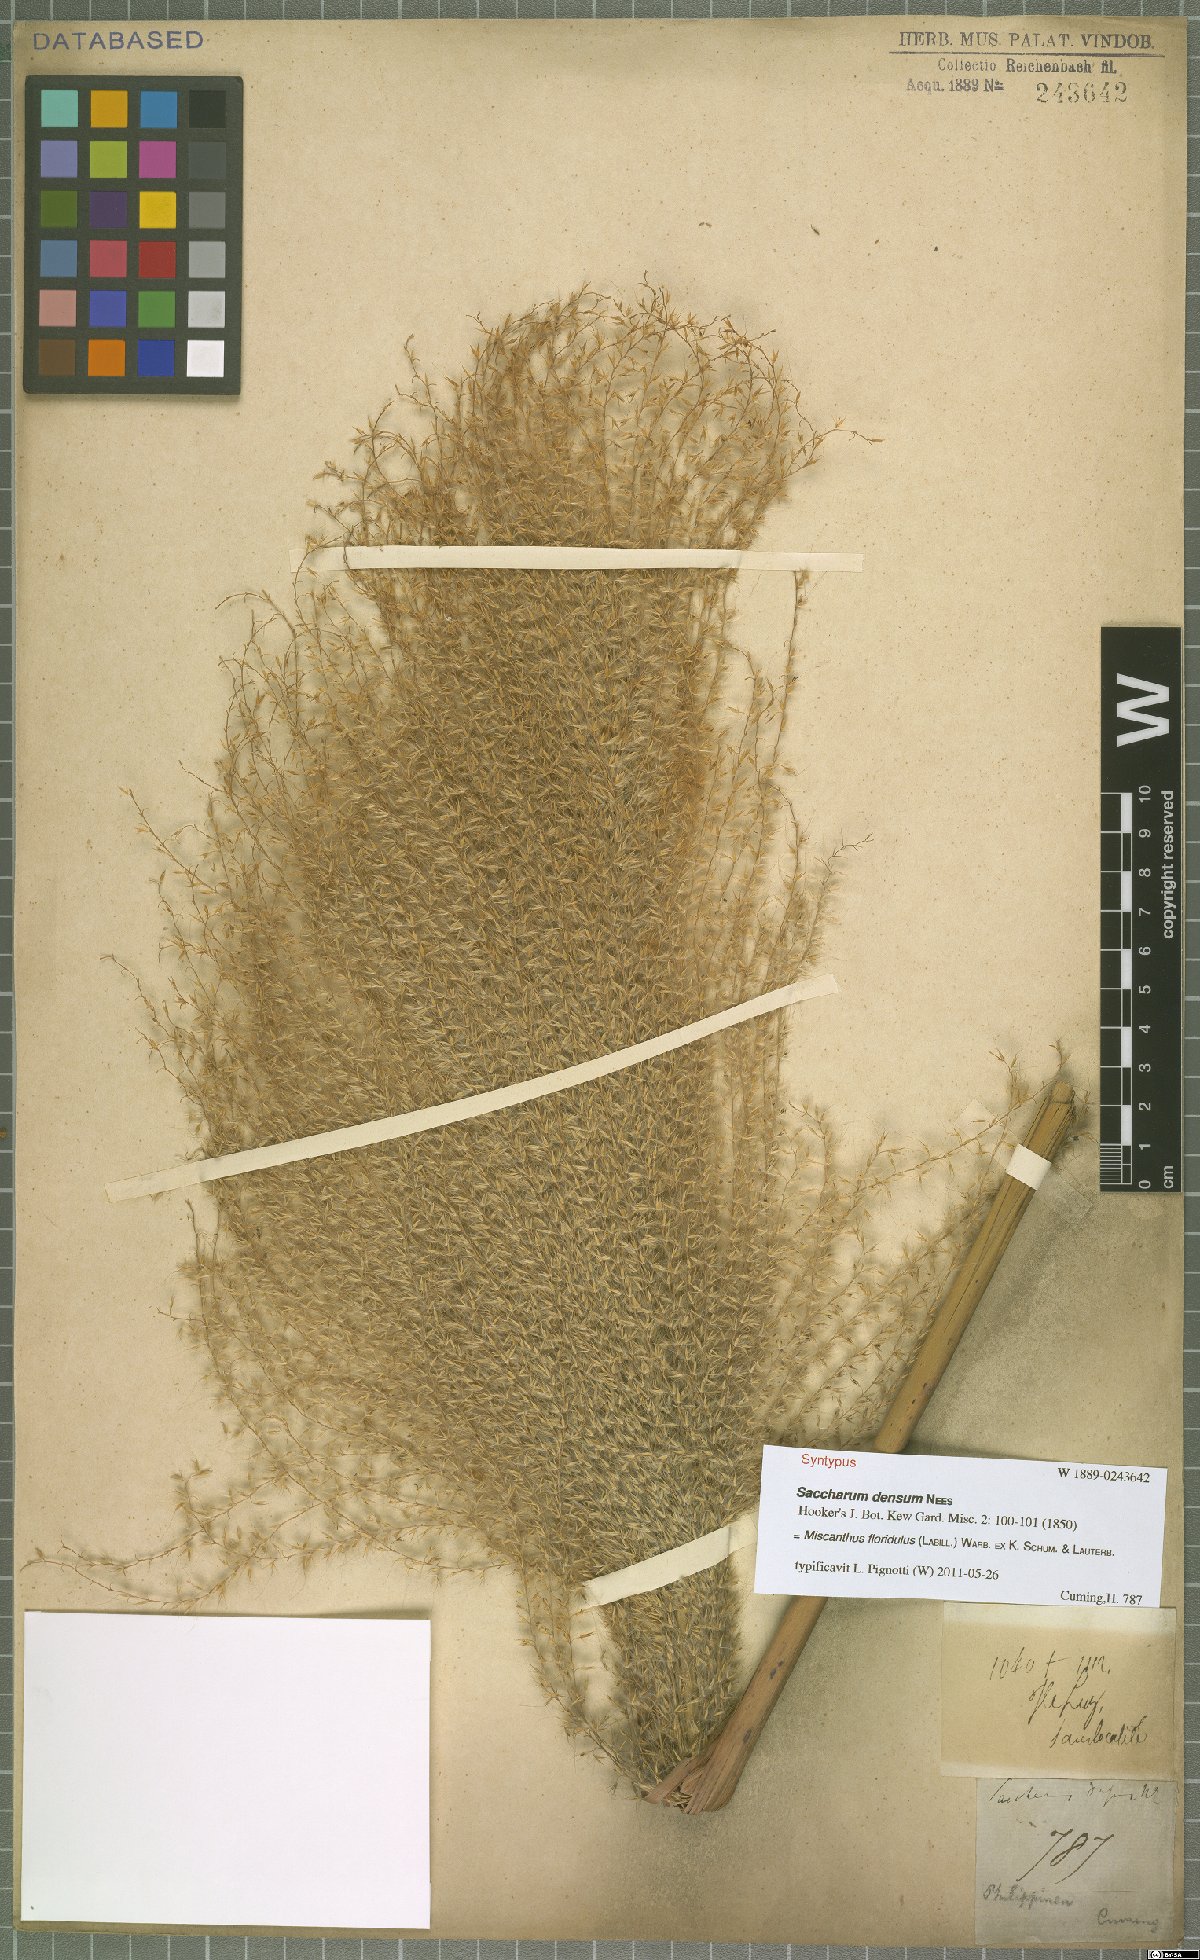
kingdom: Plantae
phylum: Tracheophyta
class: Liliopsida
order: Poales
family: Poaceae
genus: Miscanthus
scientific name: Miscanthus floridulus
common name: Pacific island silvergrass
